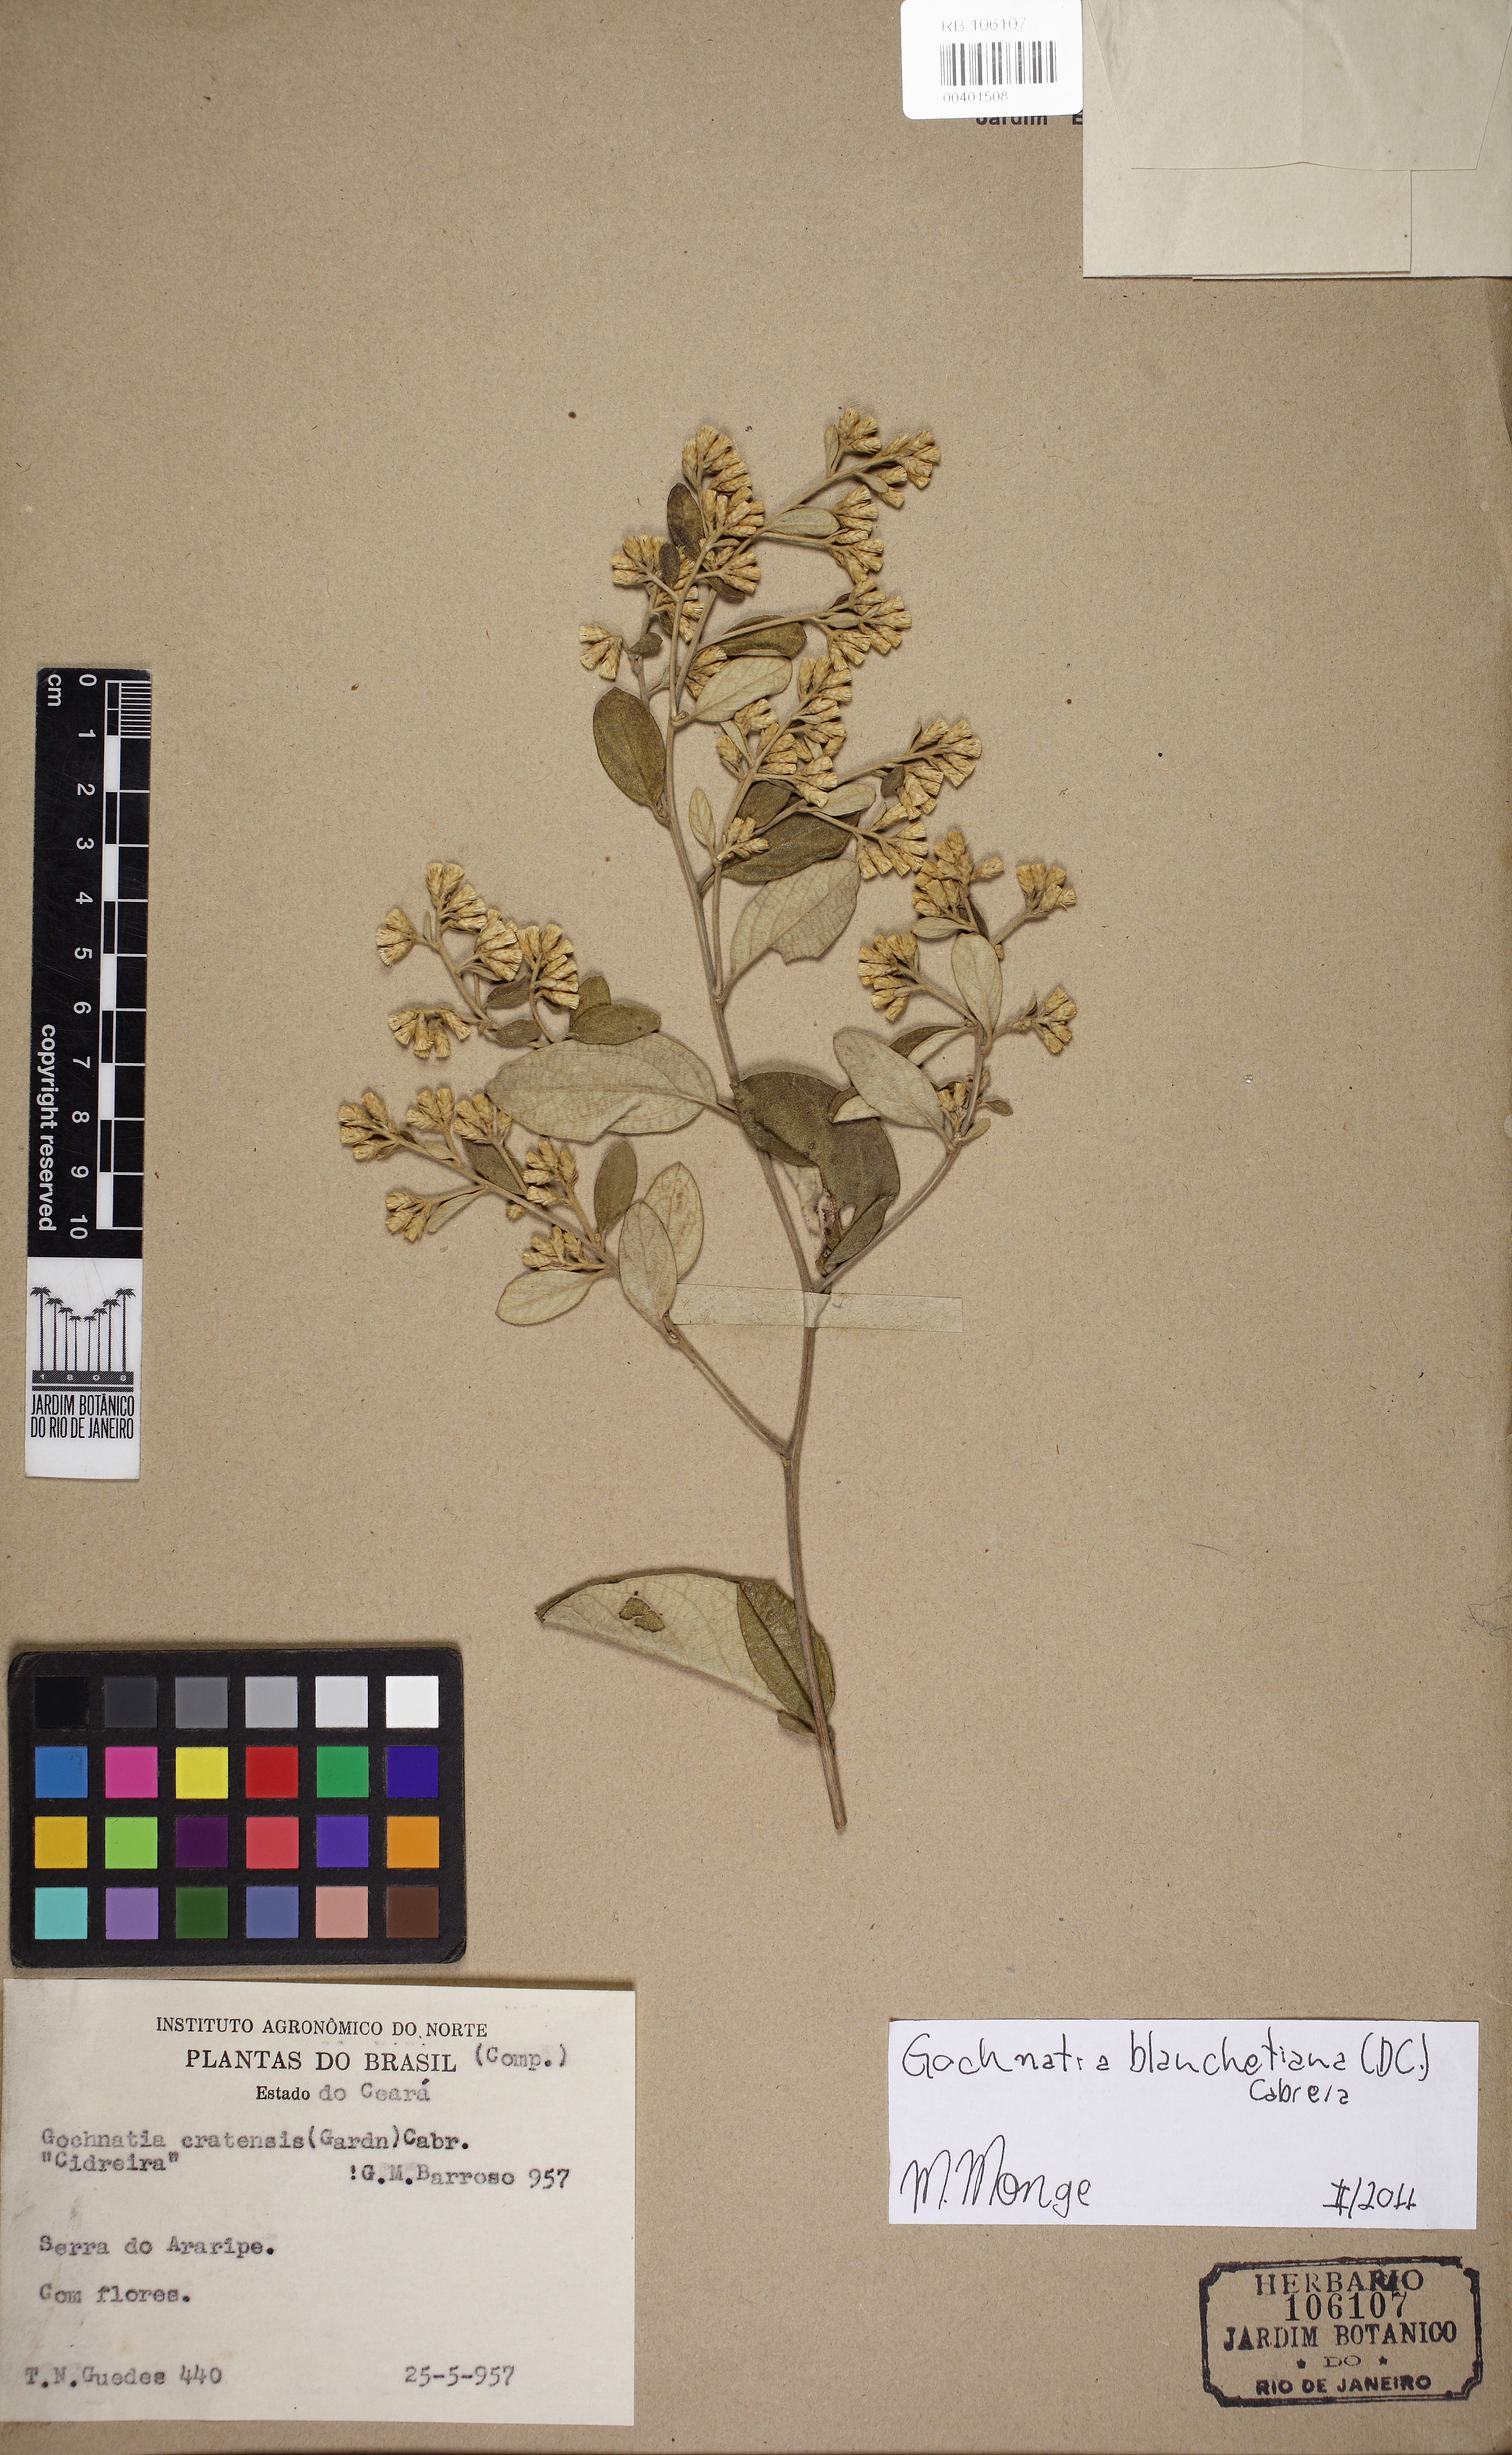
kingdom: Plantae
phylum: Tracheophyta
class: Magnoliopsida
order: Asterales
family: Asteraceae
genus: Moquiniastrum
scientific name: Moquiniastrum blanchetianum
